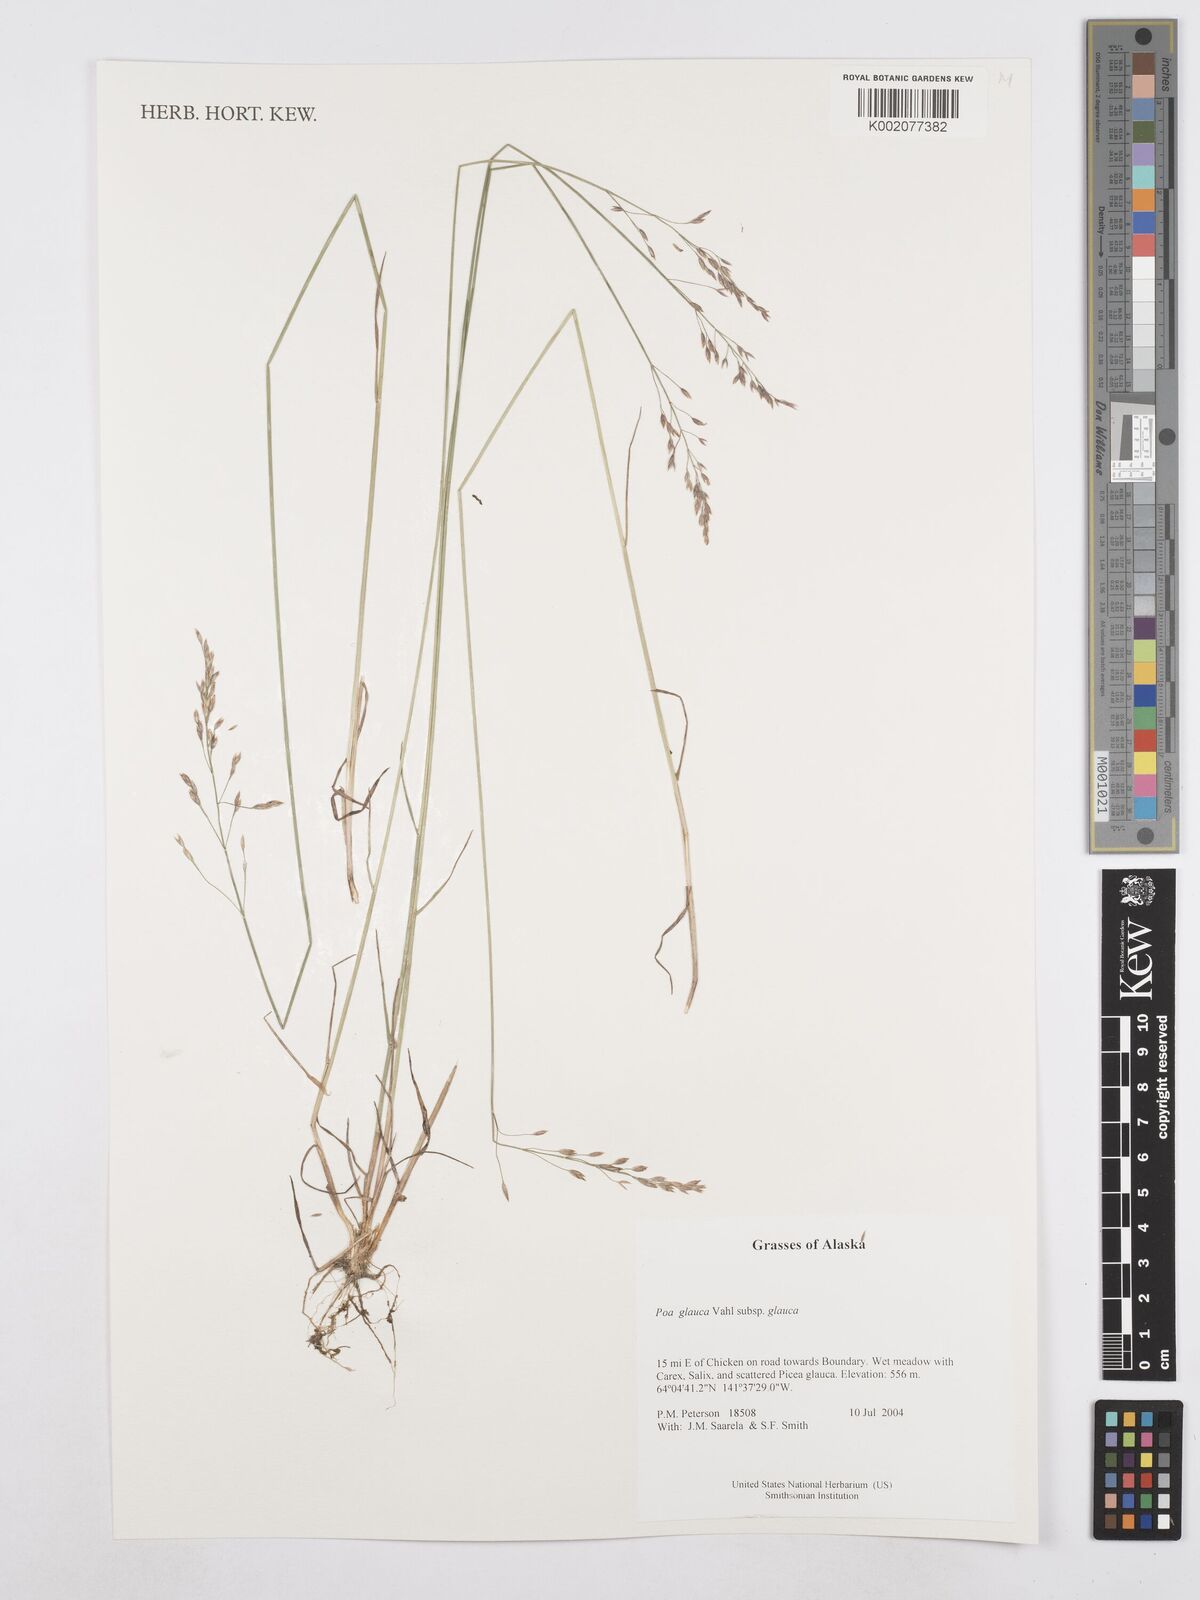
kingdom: Plantae
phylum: Tracheophyta
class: Liliopsida
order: Poales
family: Poaceae
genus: Poa
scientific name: Poa glauca
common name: Glaucous bluegrass
